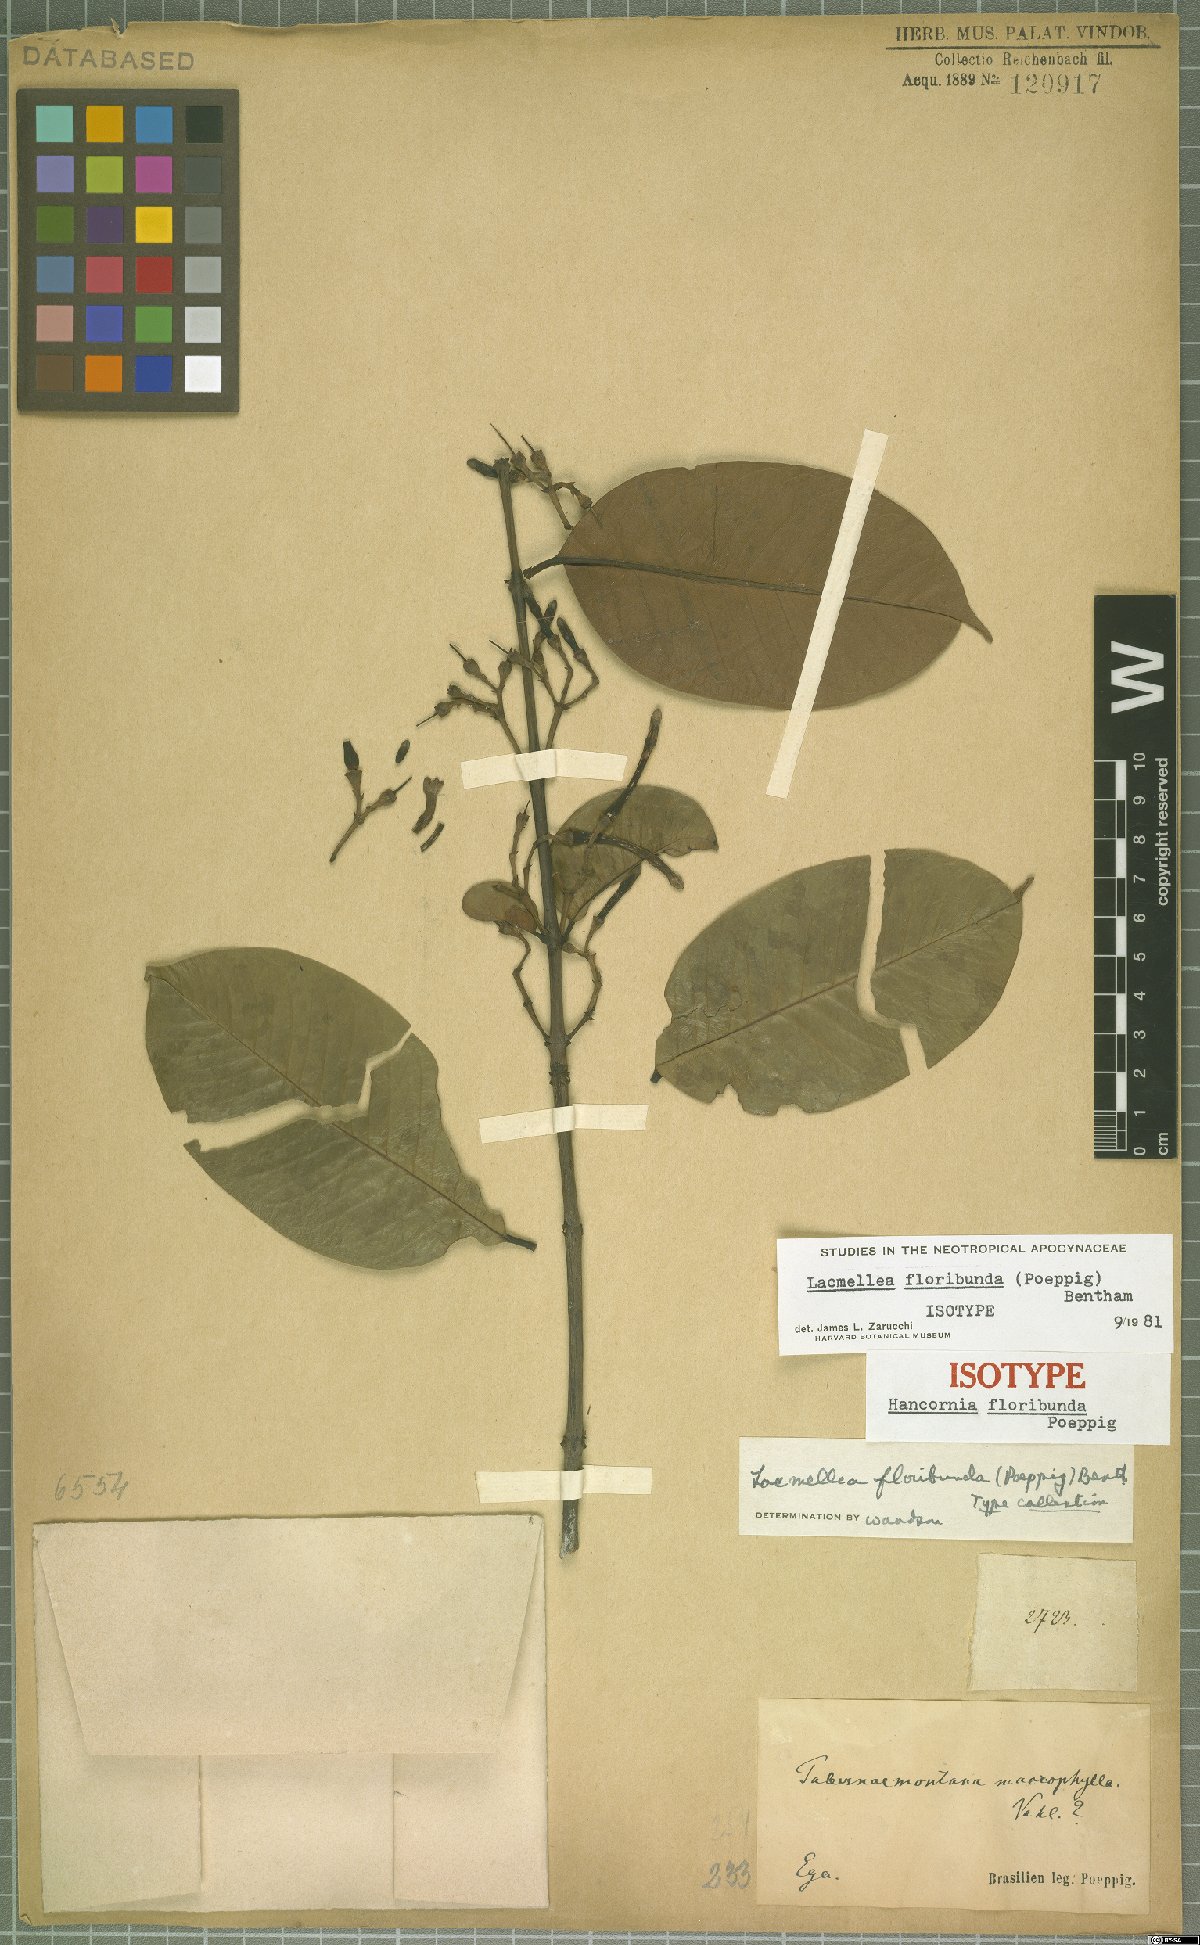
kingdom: Plantae
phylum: Tracheophyta
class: Magnoliopsida
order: Gentianales
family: Apocynaceae
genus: Lacmellea
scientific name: Lacmellea floribunda
